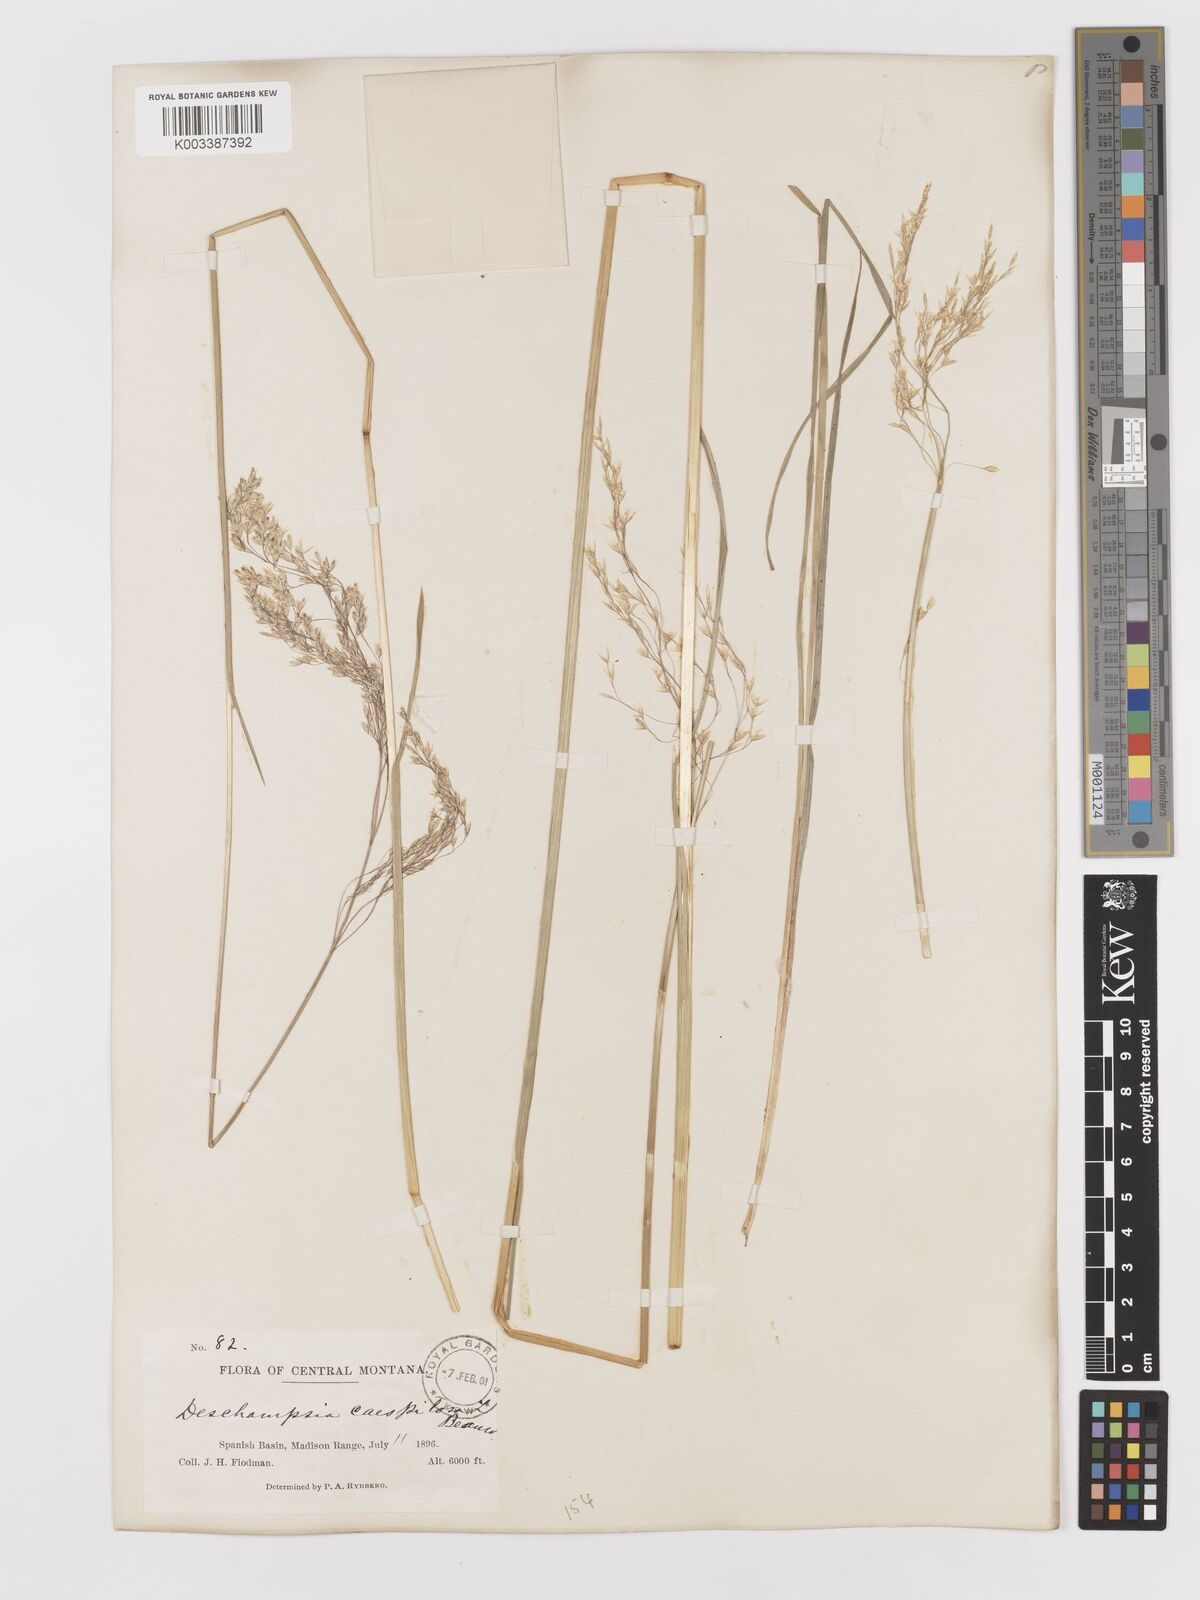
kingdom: Plantae
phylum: Tracheophyta
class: Liliopsida
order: Poales
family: Poaceae
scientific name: Poaceae
